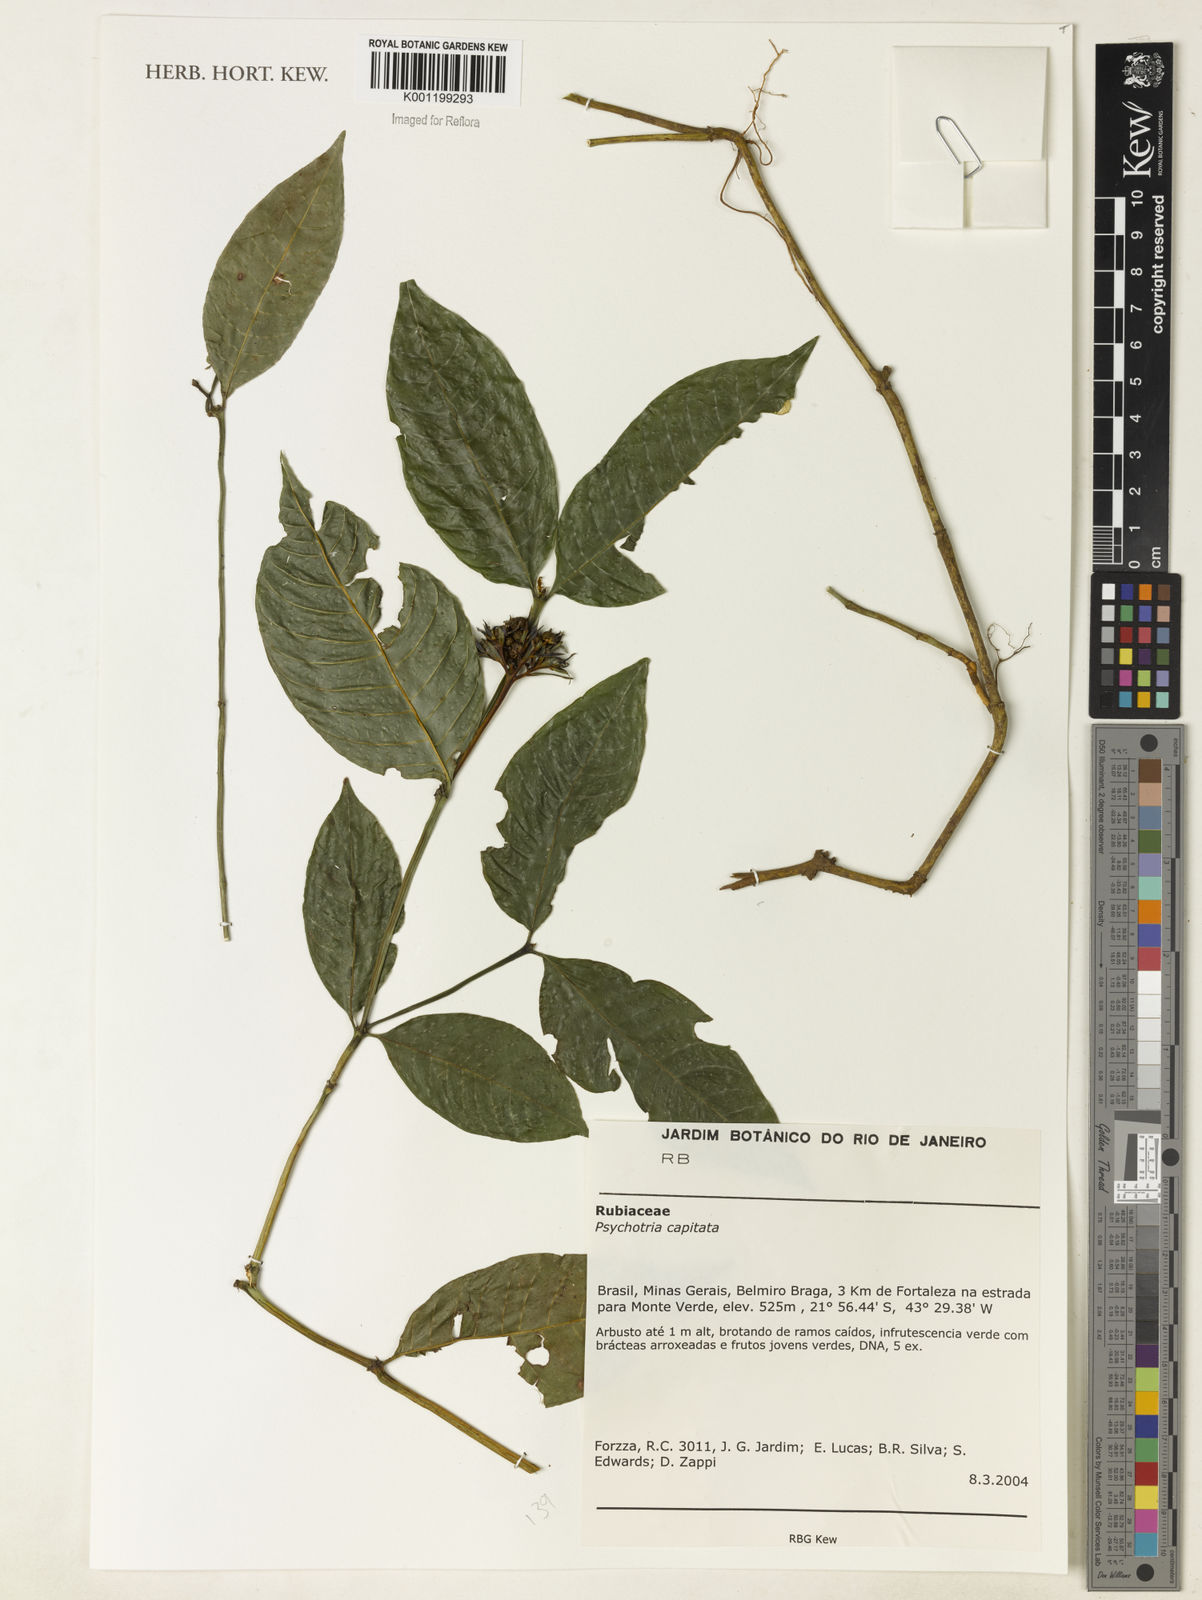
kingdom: Plantae
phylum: Tracheophyta
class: Magnoliopsida
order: Gentianales
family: Rubiaceae
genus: Palicourea
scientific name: Palicourea violacea
